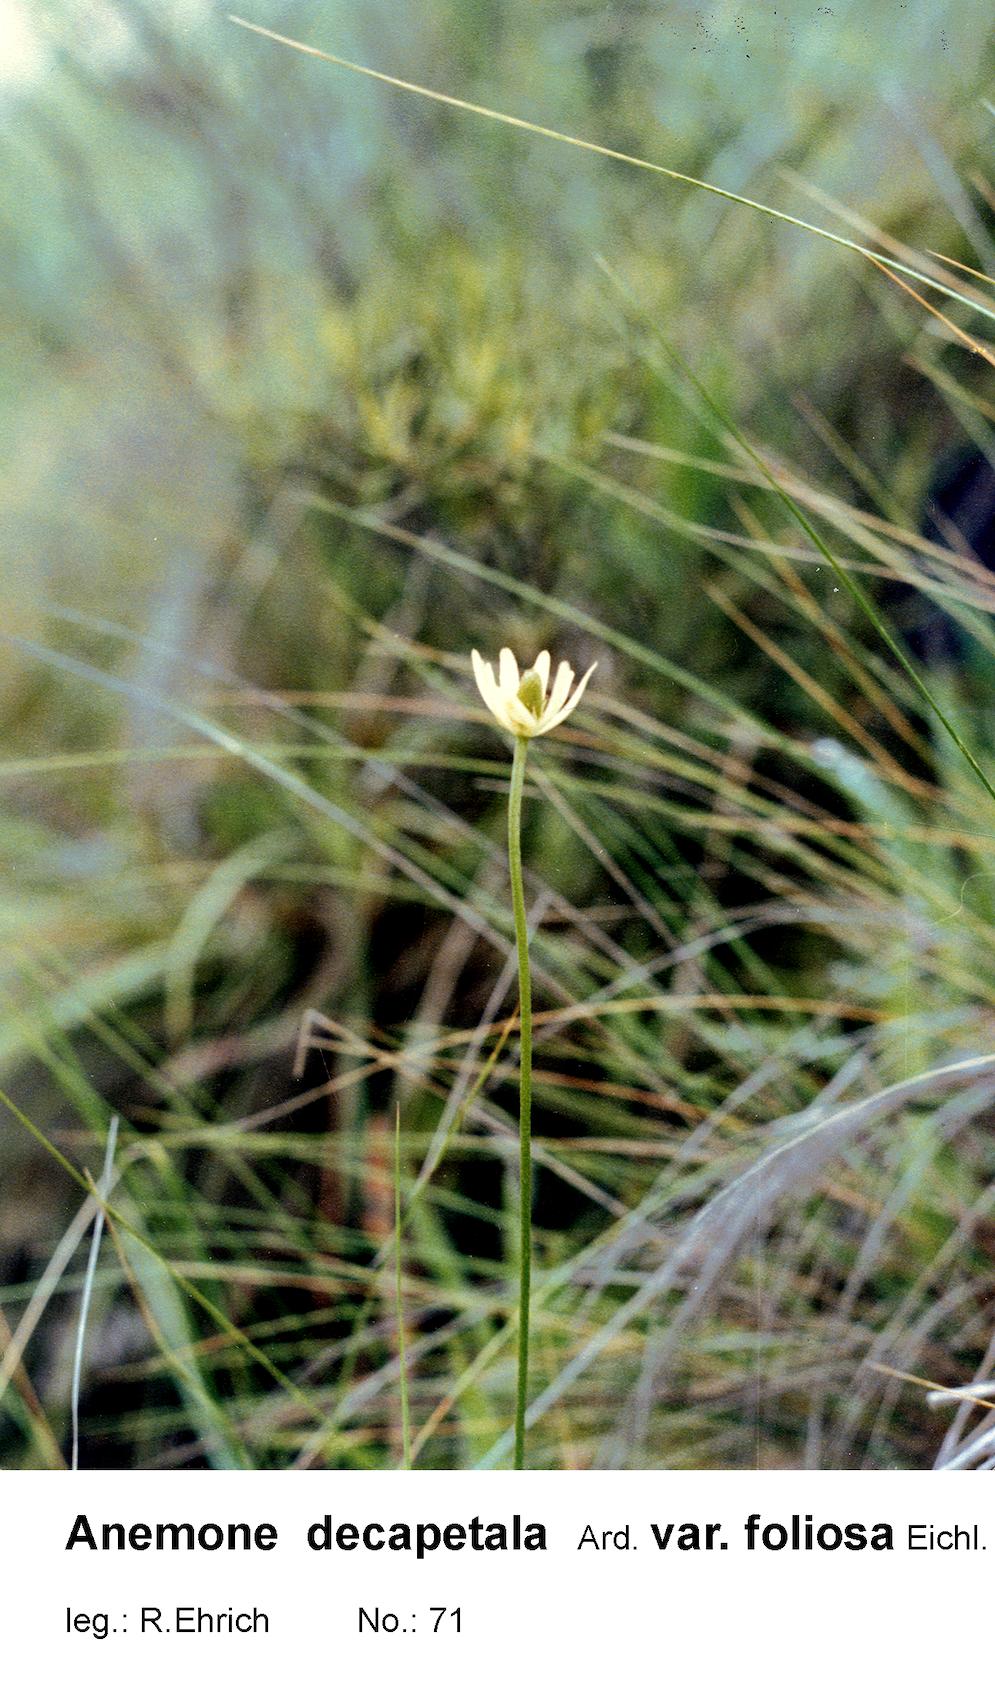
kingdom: Plantae
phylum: Tracheophyta
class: Magnoliopsida
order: Ranunculales
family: Ranunculaceae
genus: Anemone
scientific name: Anemone decapetala
